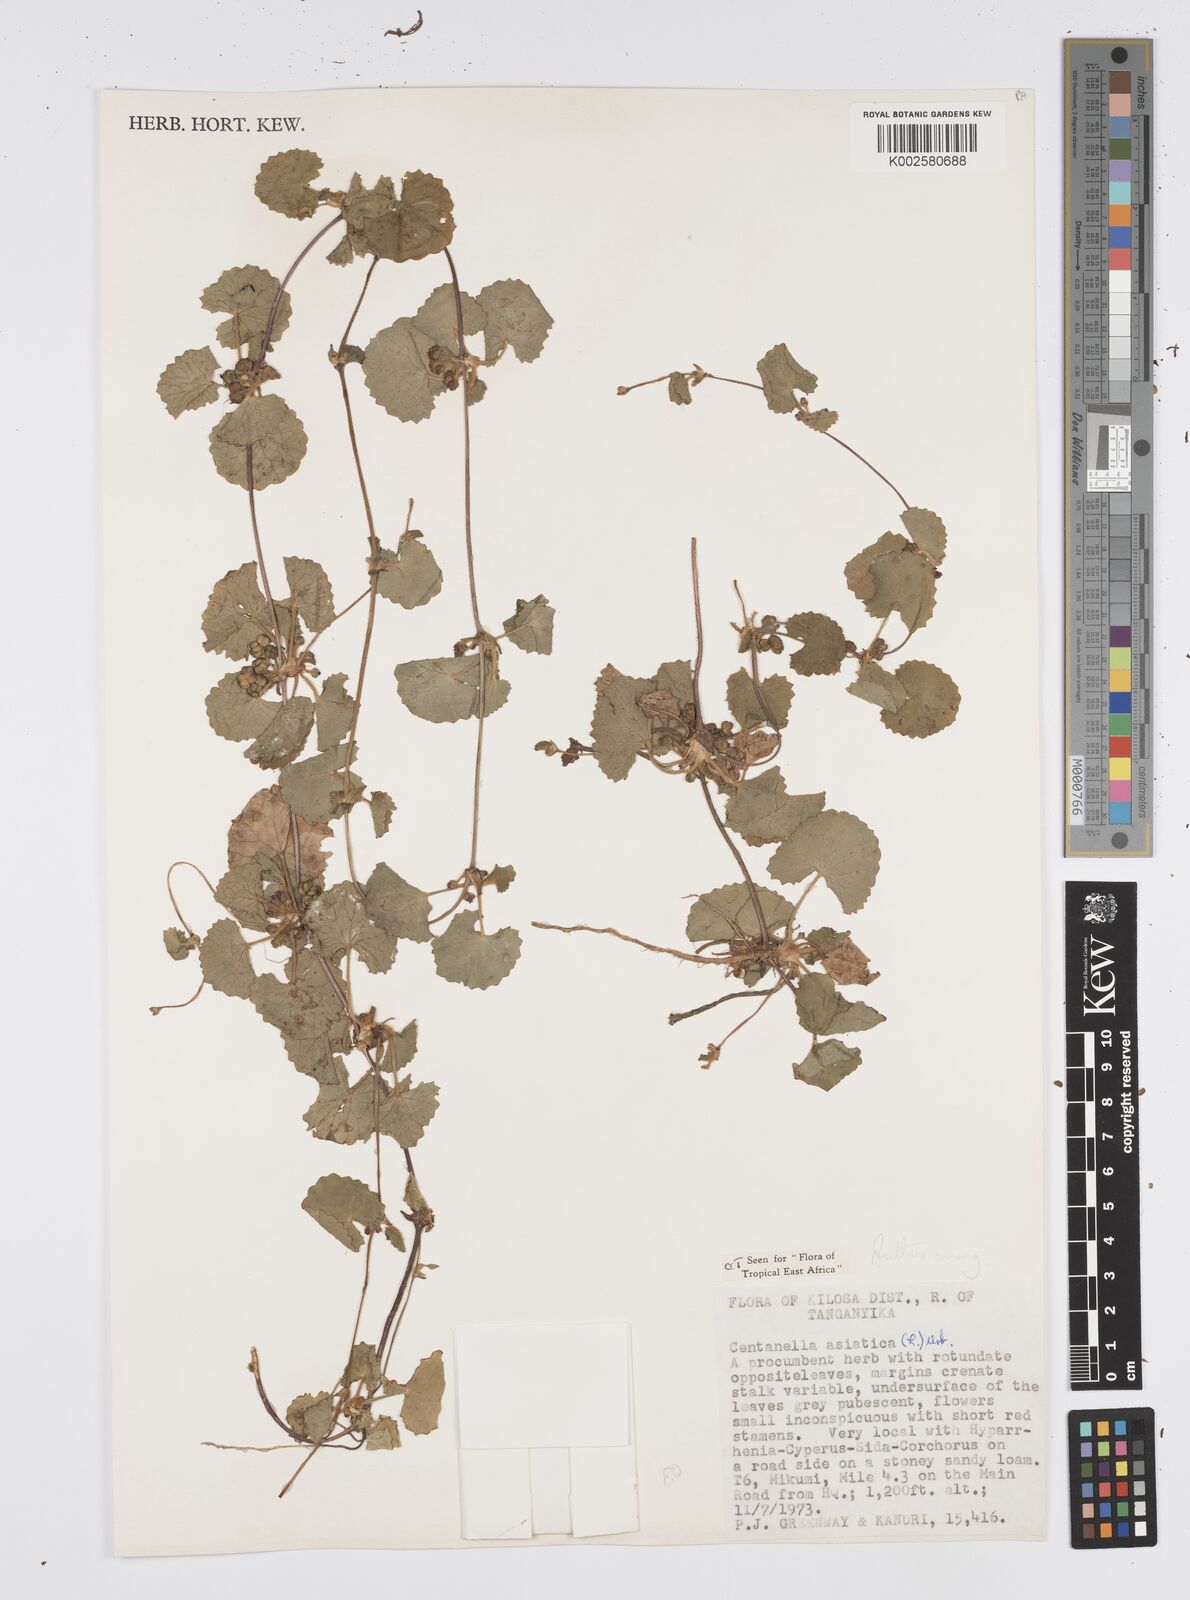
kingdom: Plantae
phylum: Tracheophyta
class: Magnoliopsida
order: Apiales
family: Apiaceae
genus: Centella
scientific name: Centella asiatica
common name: Spadeleaf
